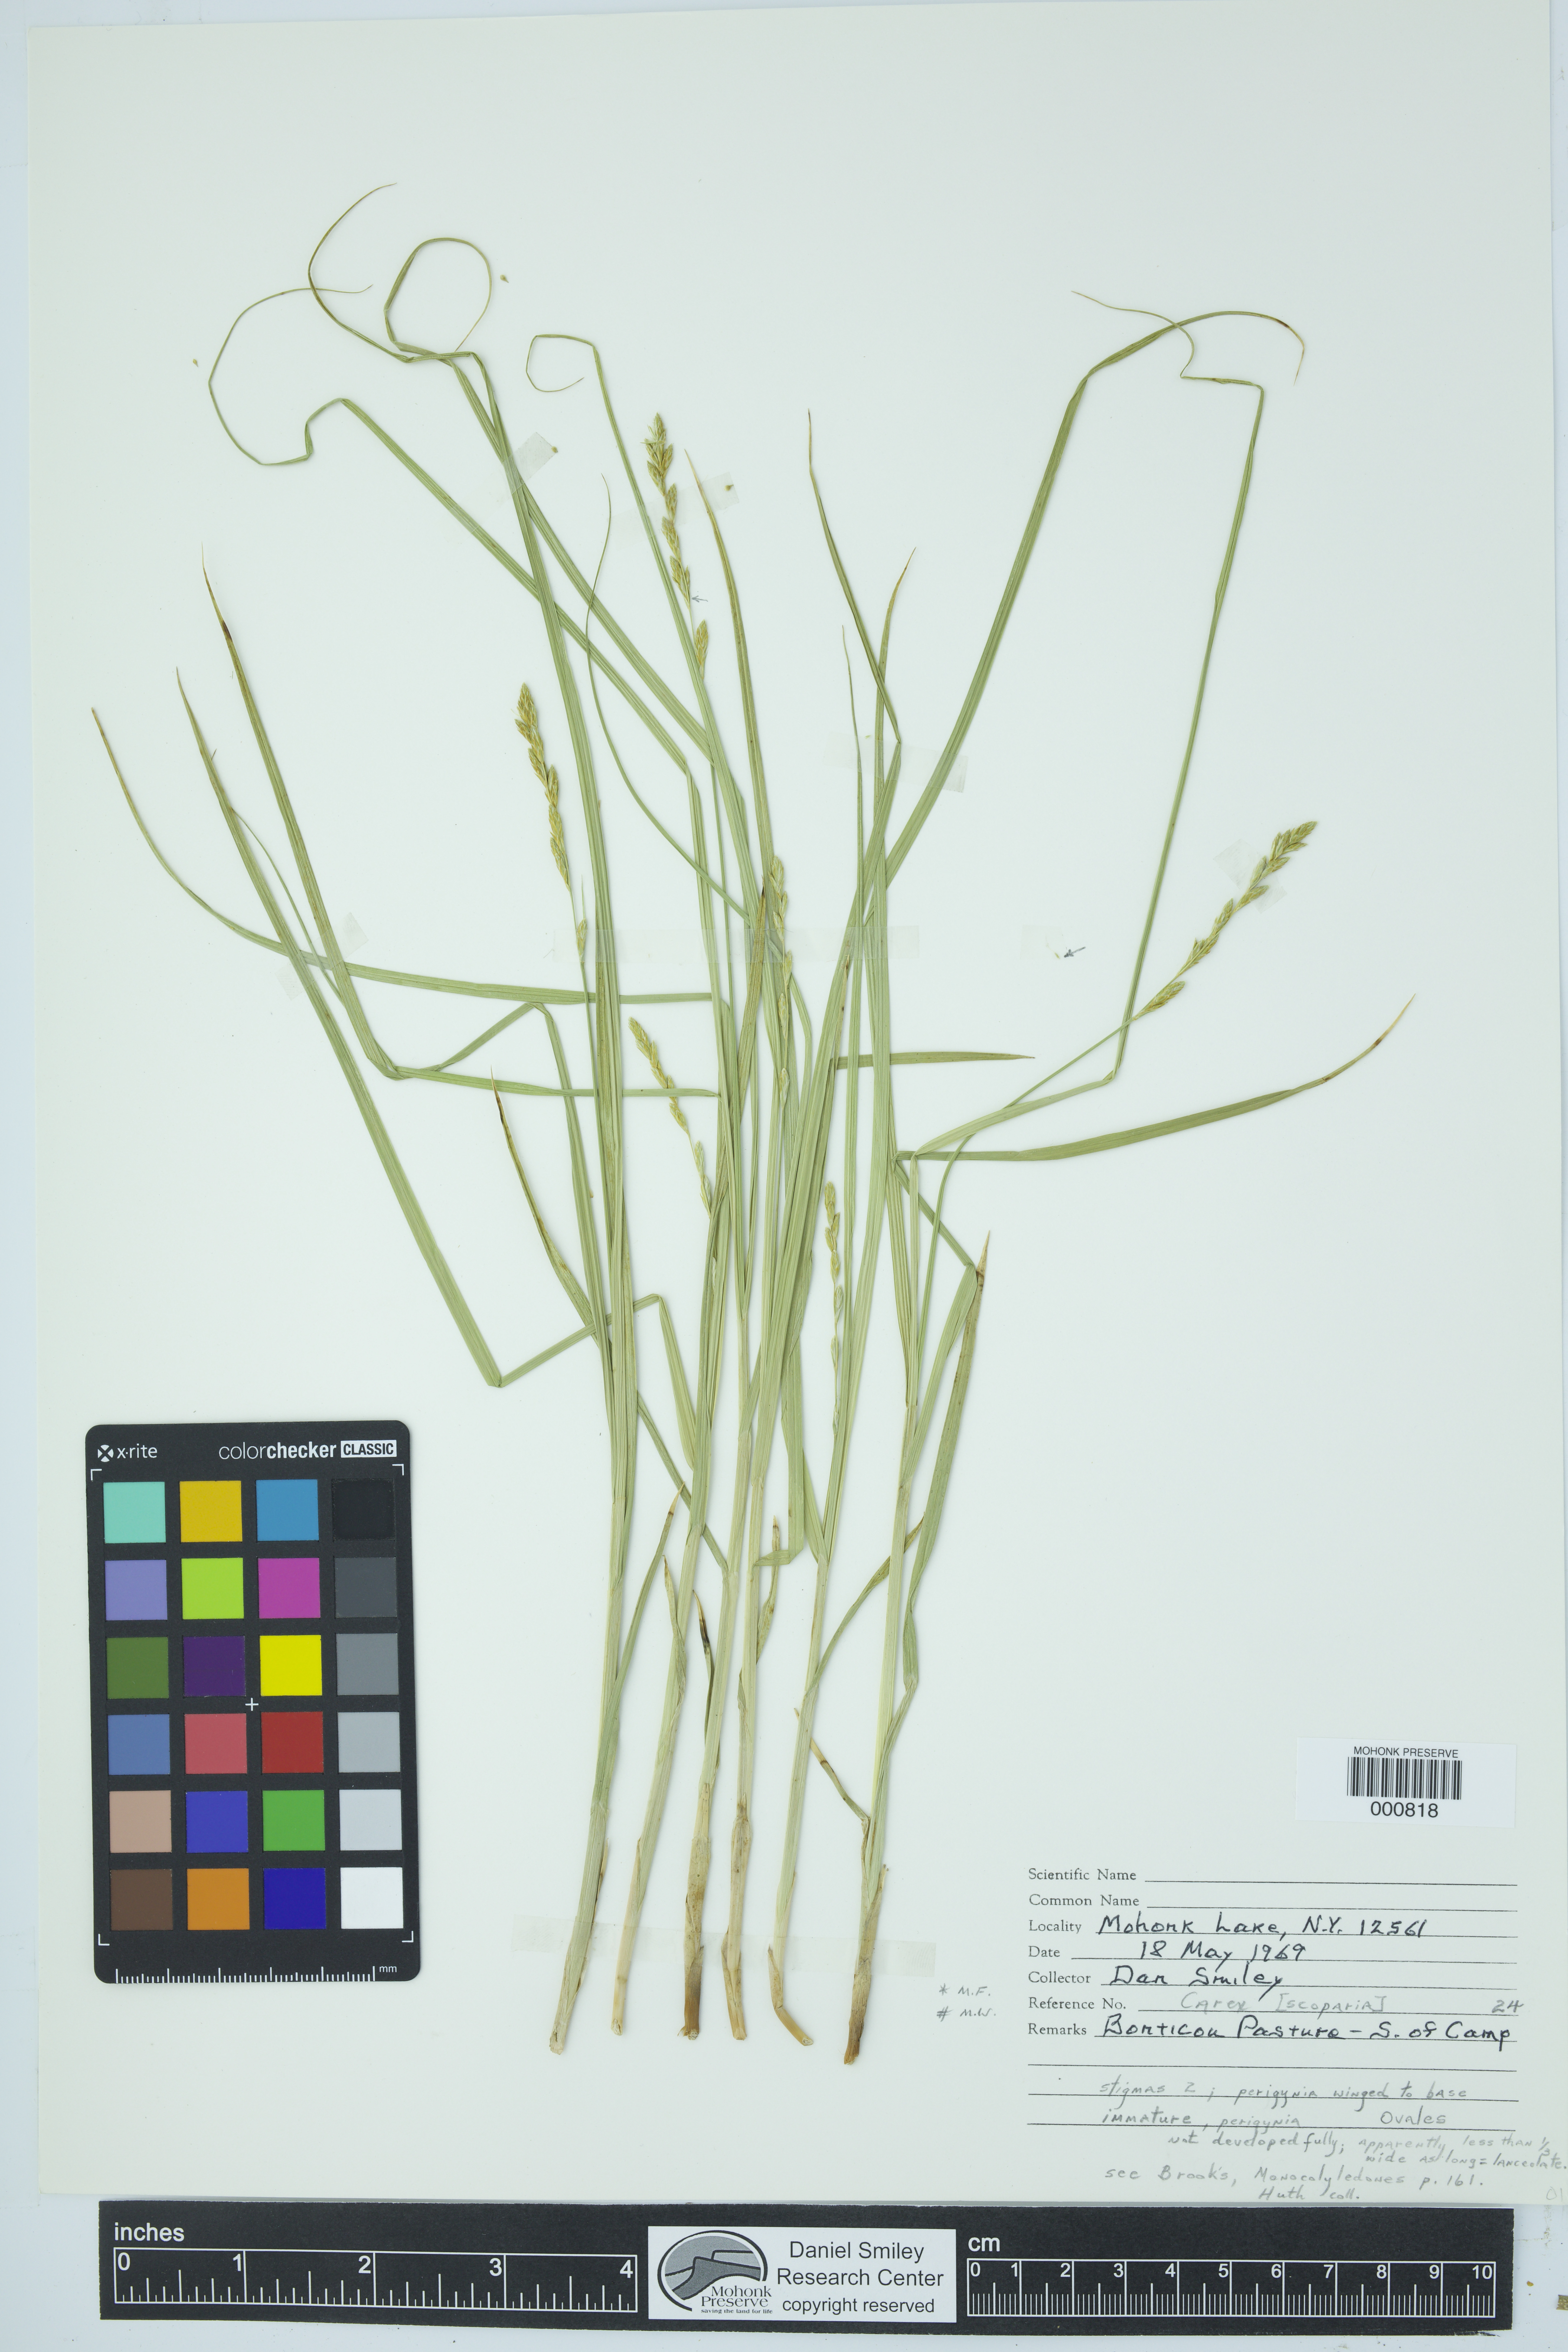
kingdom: Plantae
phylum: Tracheophyta
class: Liliopsida
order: Poales
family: Cyperaceae
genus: Carex
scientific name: Carex scoparia
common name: Broom sedge
